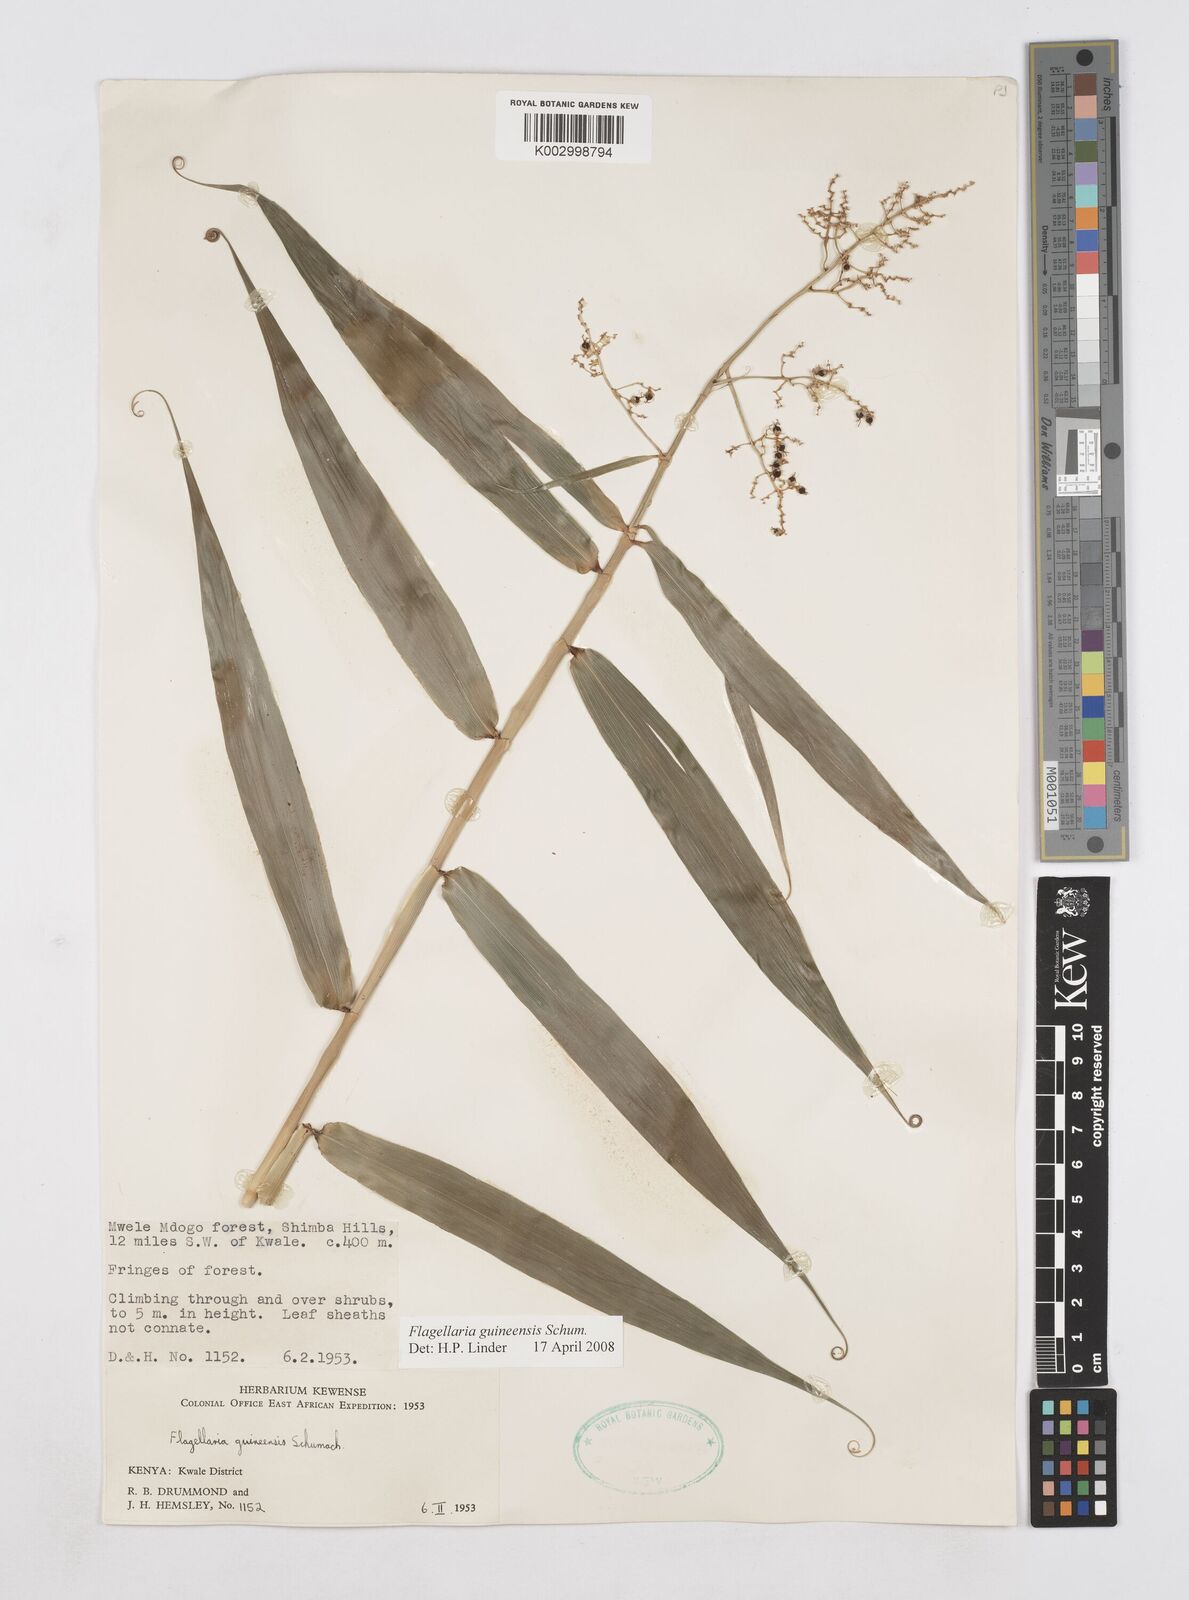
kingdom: Plantae
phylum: Tracheophyta
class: Liliopsida
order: Poales
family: Flagellariaceae
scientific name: Flagellariaceae
